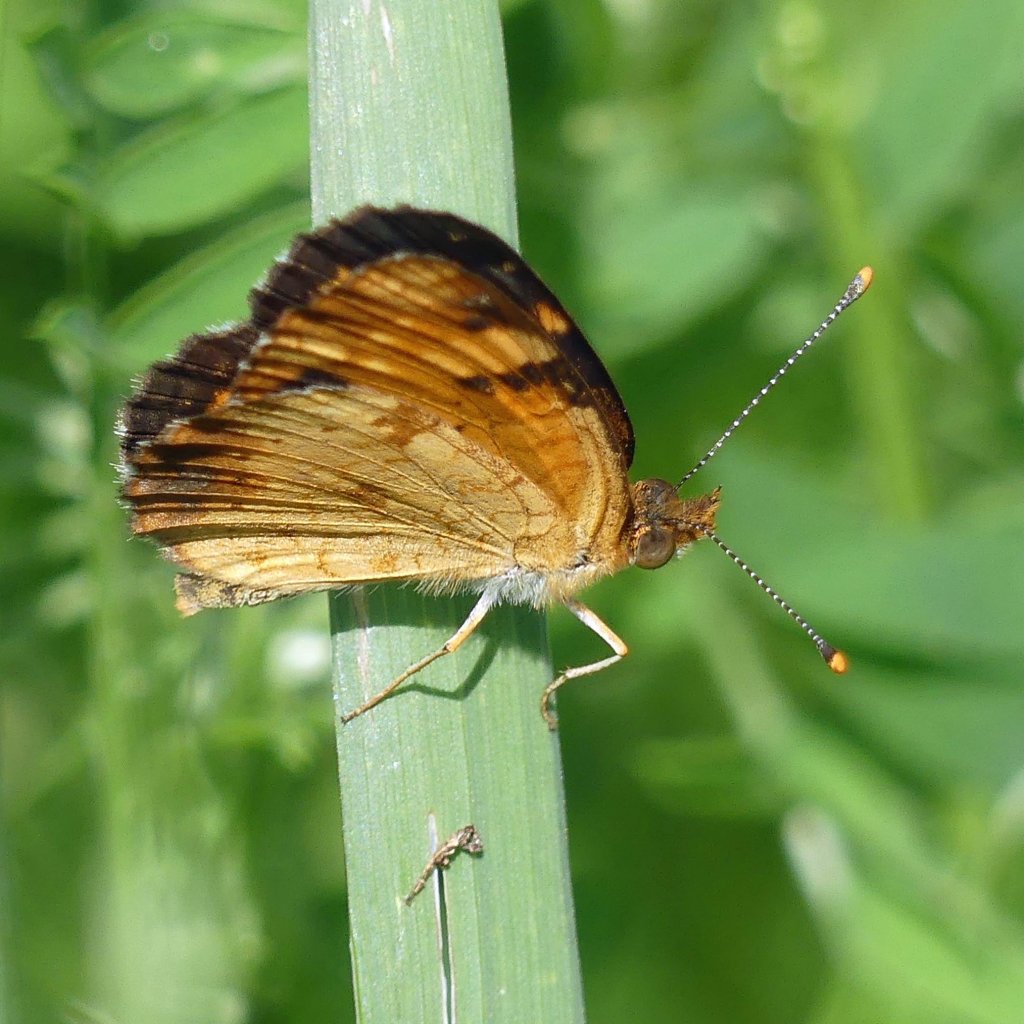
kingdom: Animalia
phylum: Arthropoda
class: Insecta
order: Lepidoptera
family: Nymphalidae
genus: Phyciodes
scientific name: Phyciodes tharos
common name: Northern Crescent
